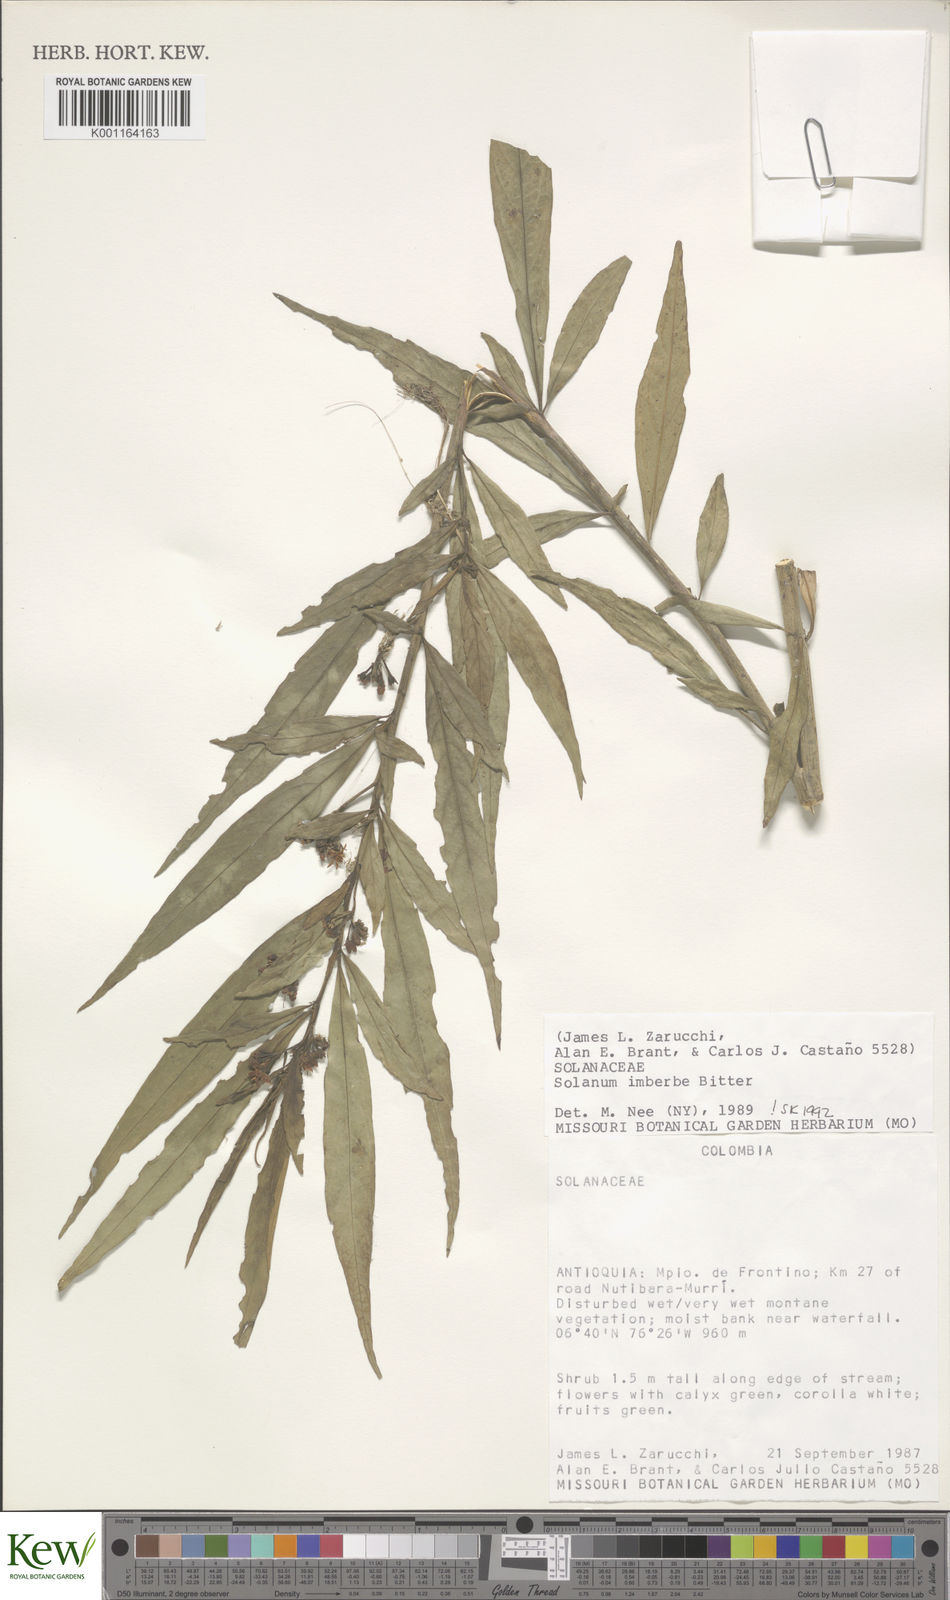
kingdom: Plantae
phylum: Tracheophyta
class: Magnoliopsida
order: Solanales
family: Solanaceae
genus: Solanum
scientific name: Solanum imberbe
